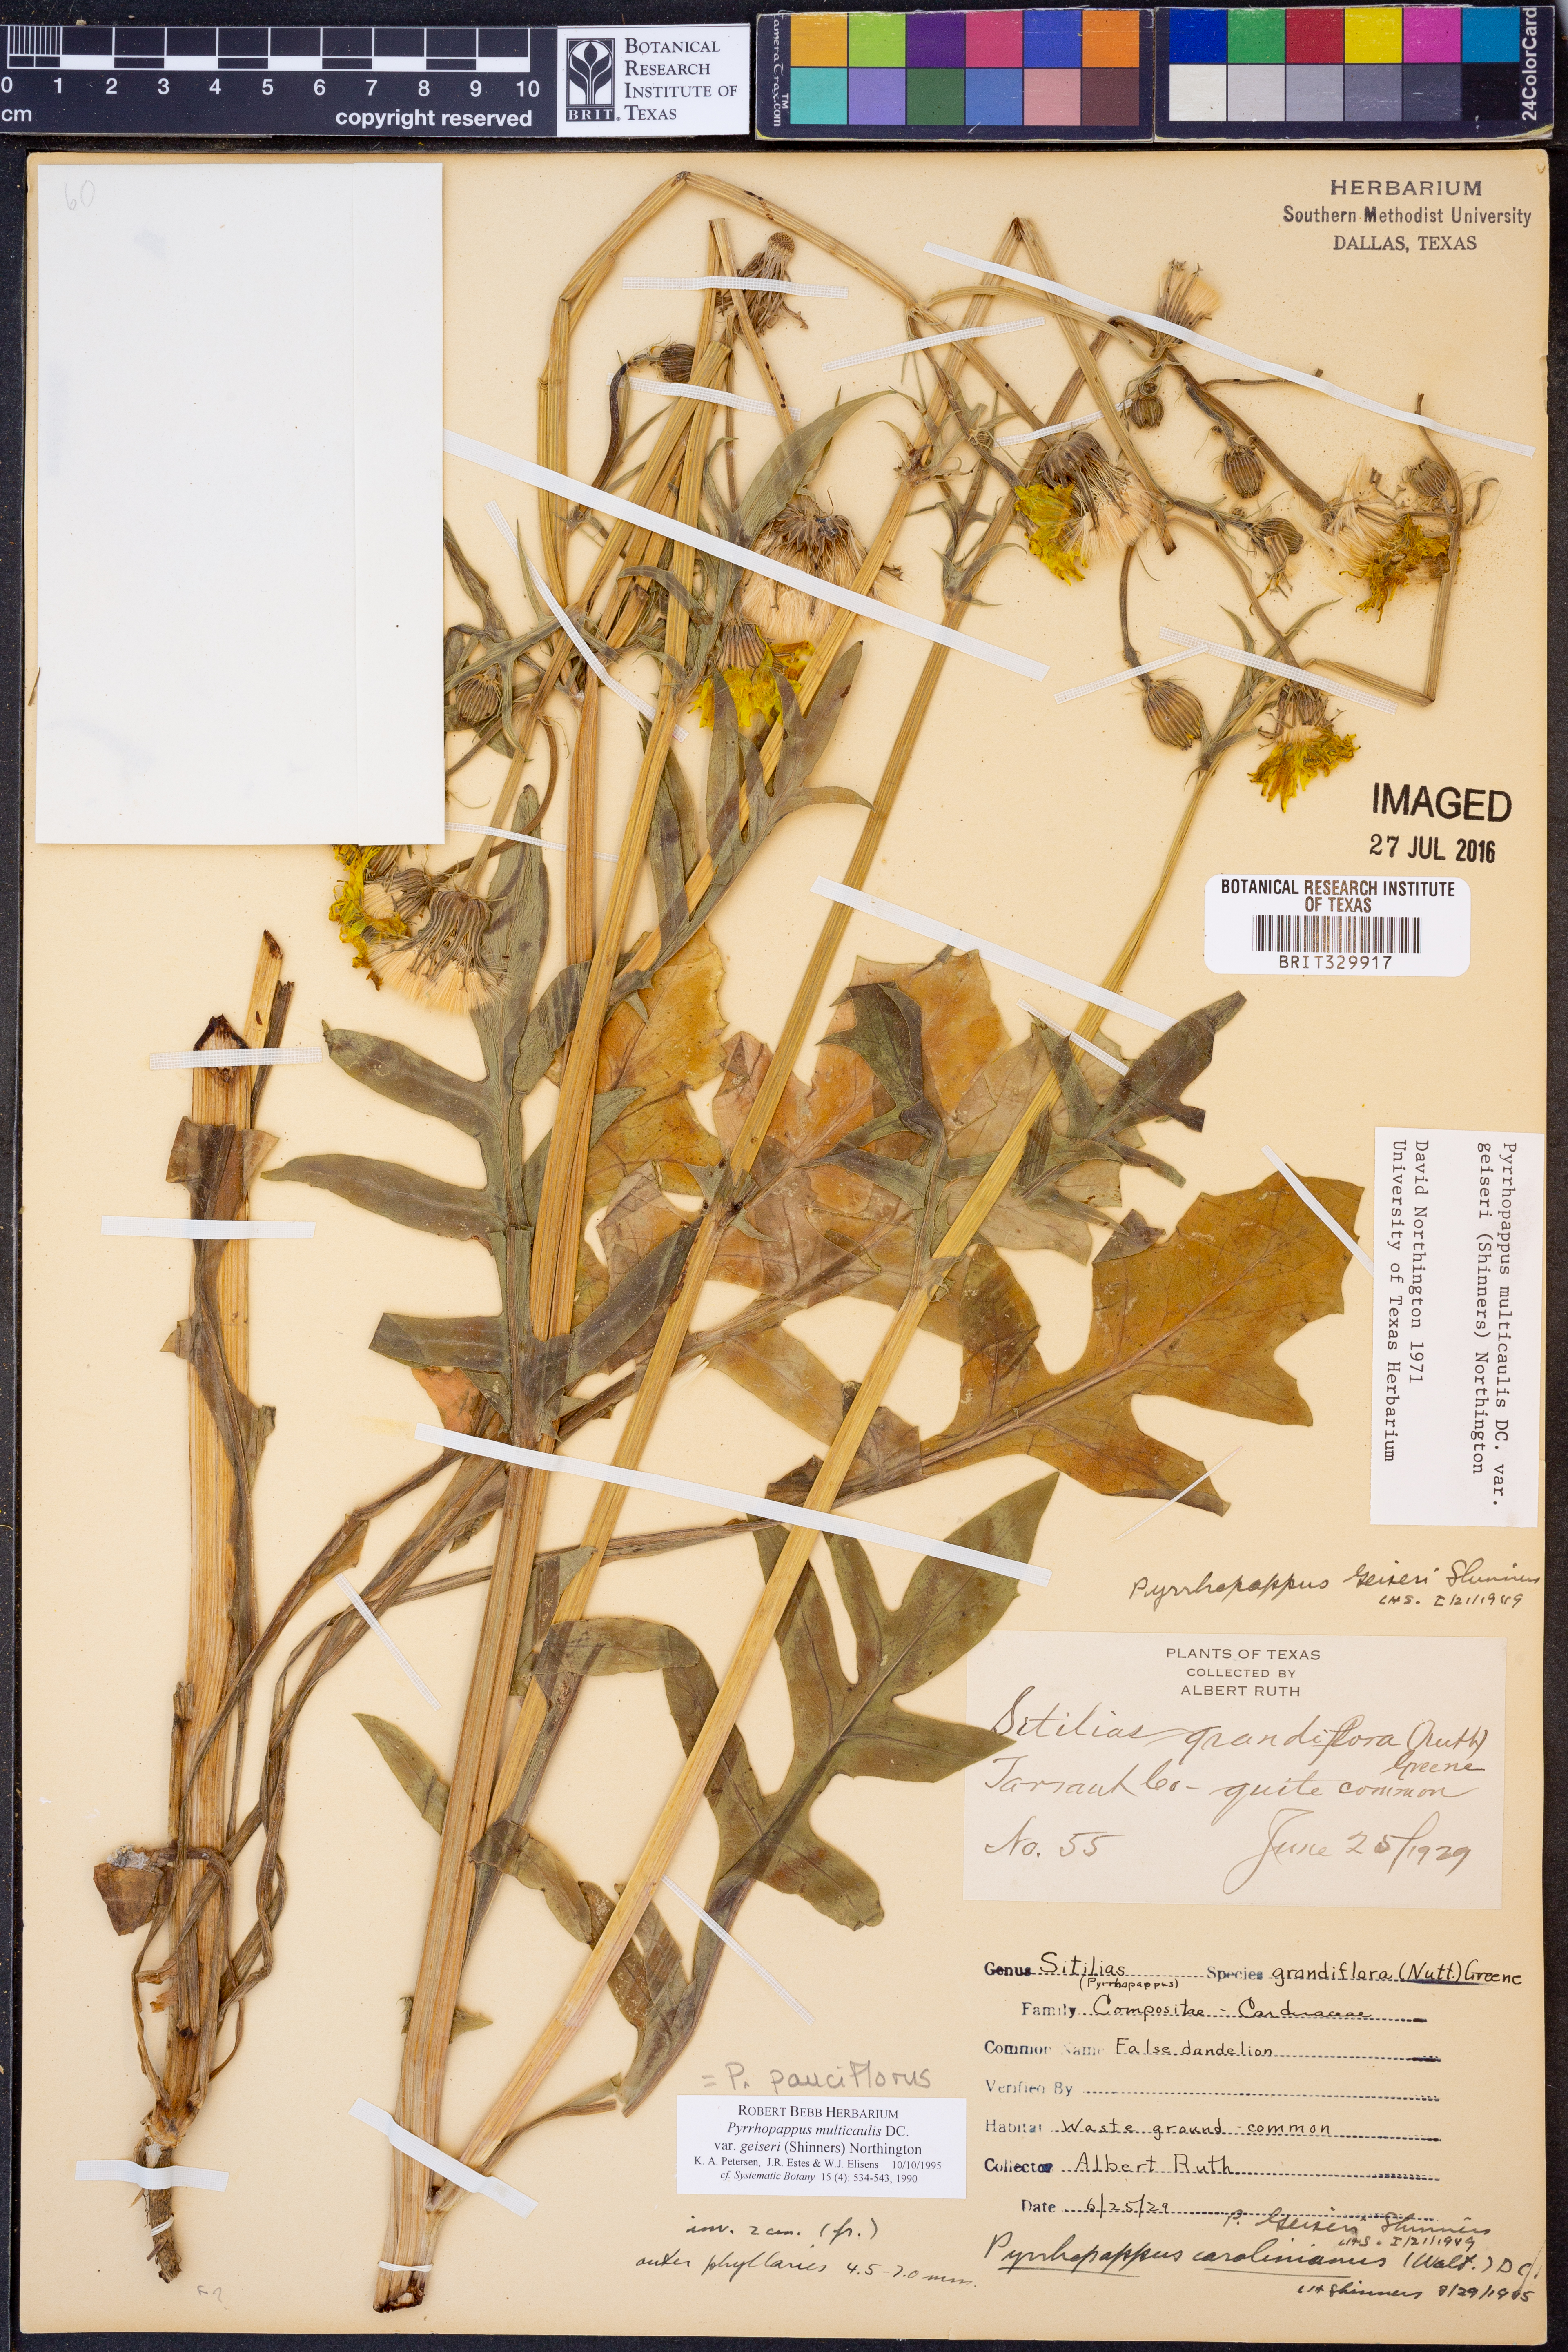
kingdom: Plantae
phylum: Tracheophyta
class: Magnoliopsida
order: Asterales
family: Asteraceae
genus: Pyrrhopappus
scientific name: Pyrrhopappus pauciflorus
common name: Texas false dandelion
